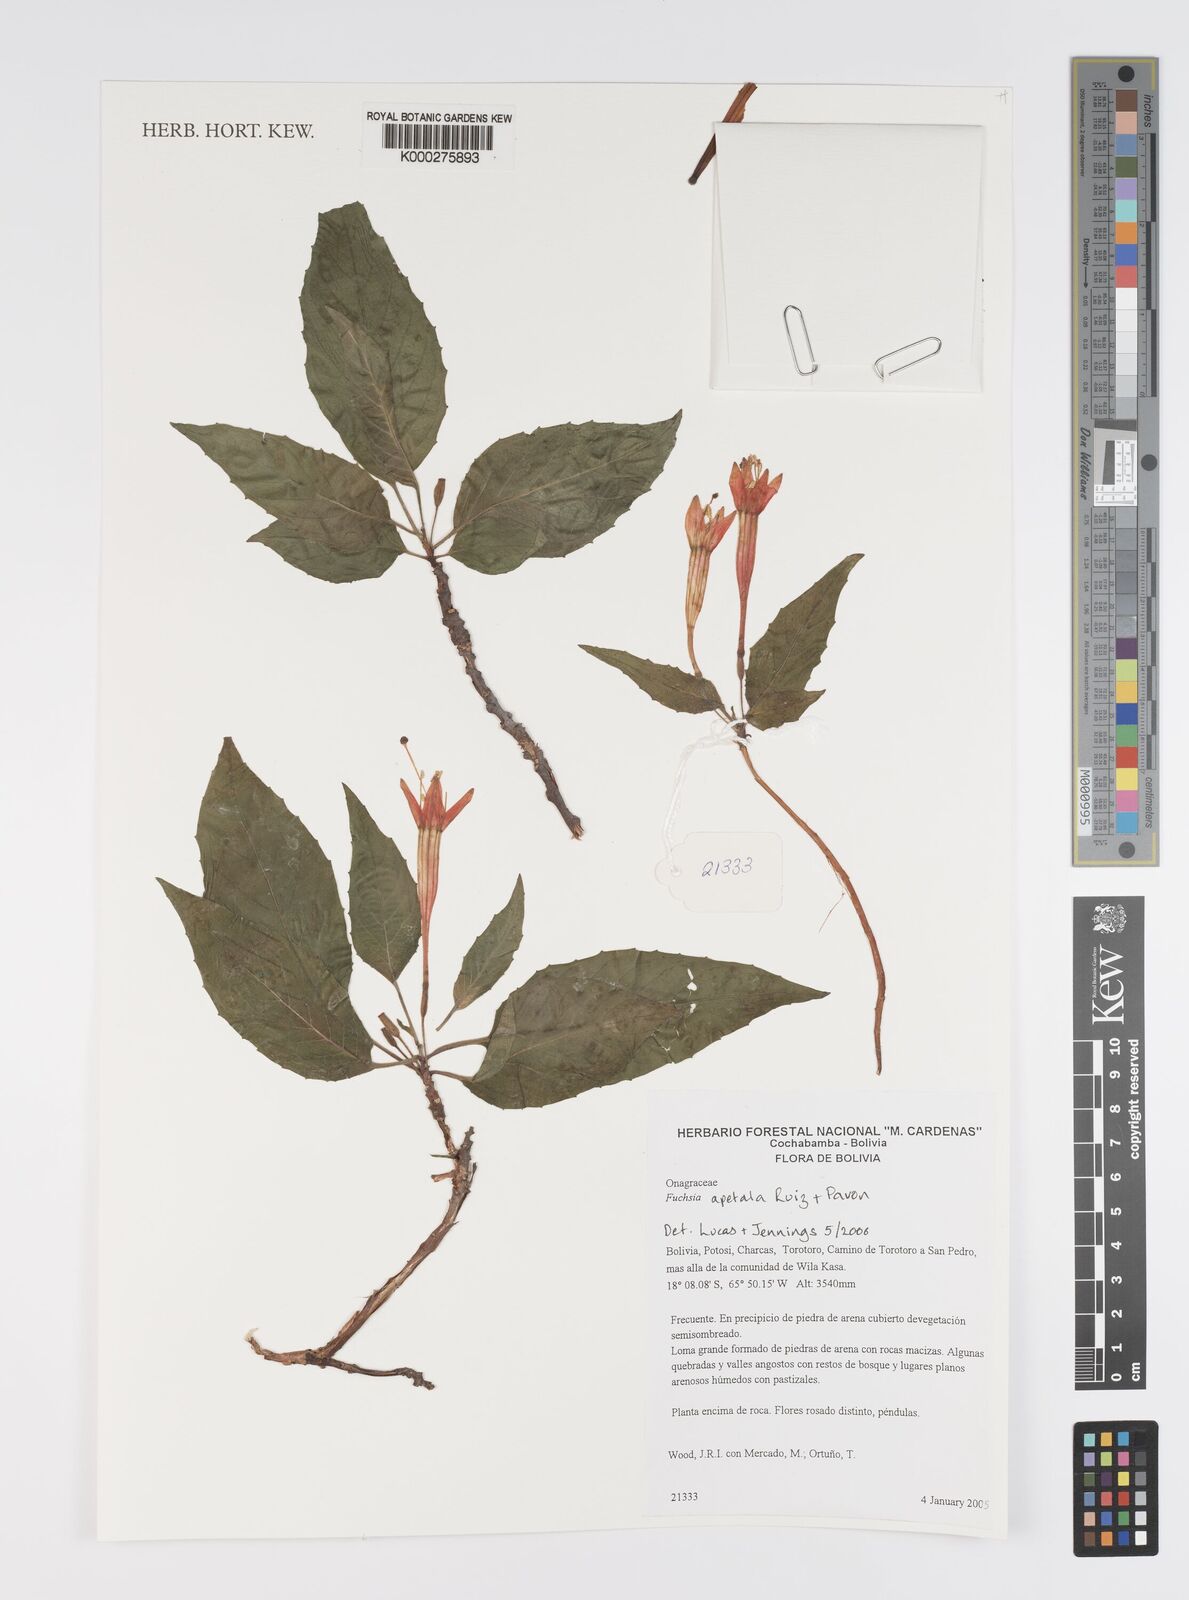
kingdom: Plantae
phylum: Tracheophyta
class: Magnoliopsida
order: Myrtales
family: Onagraceae
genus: Fuchsia
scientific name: Fuchsia apetala
